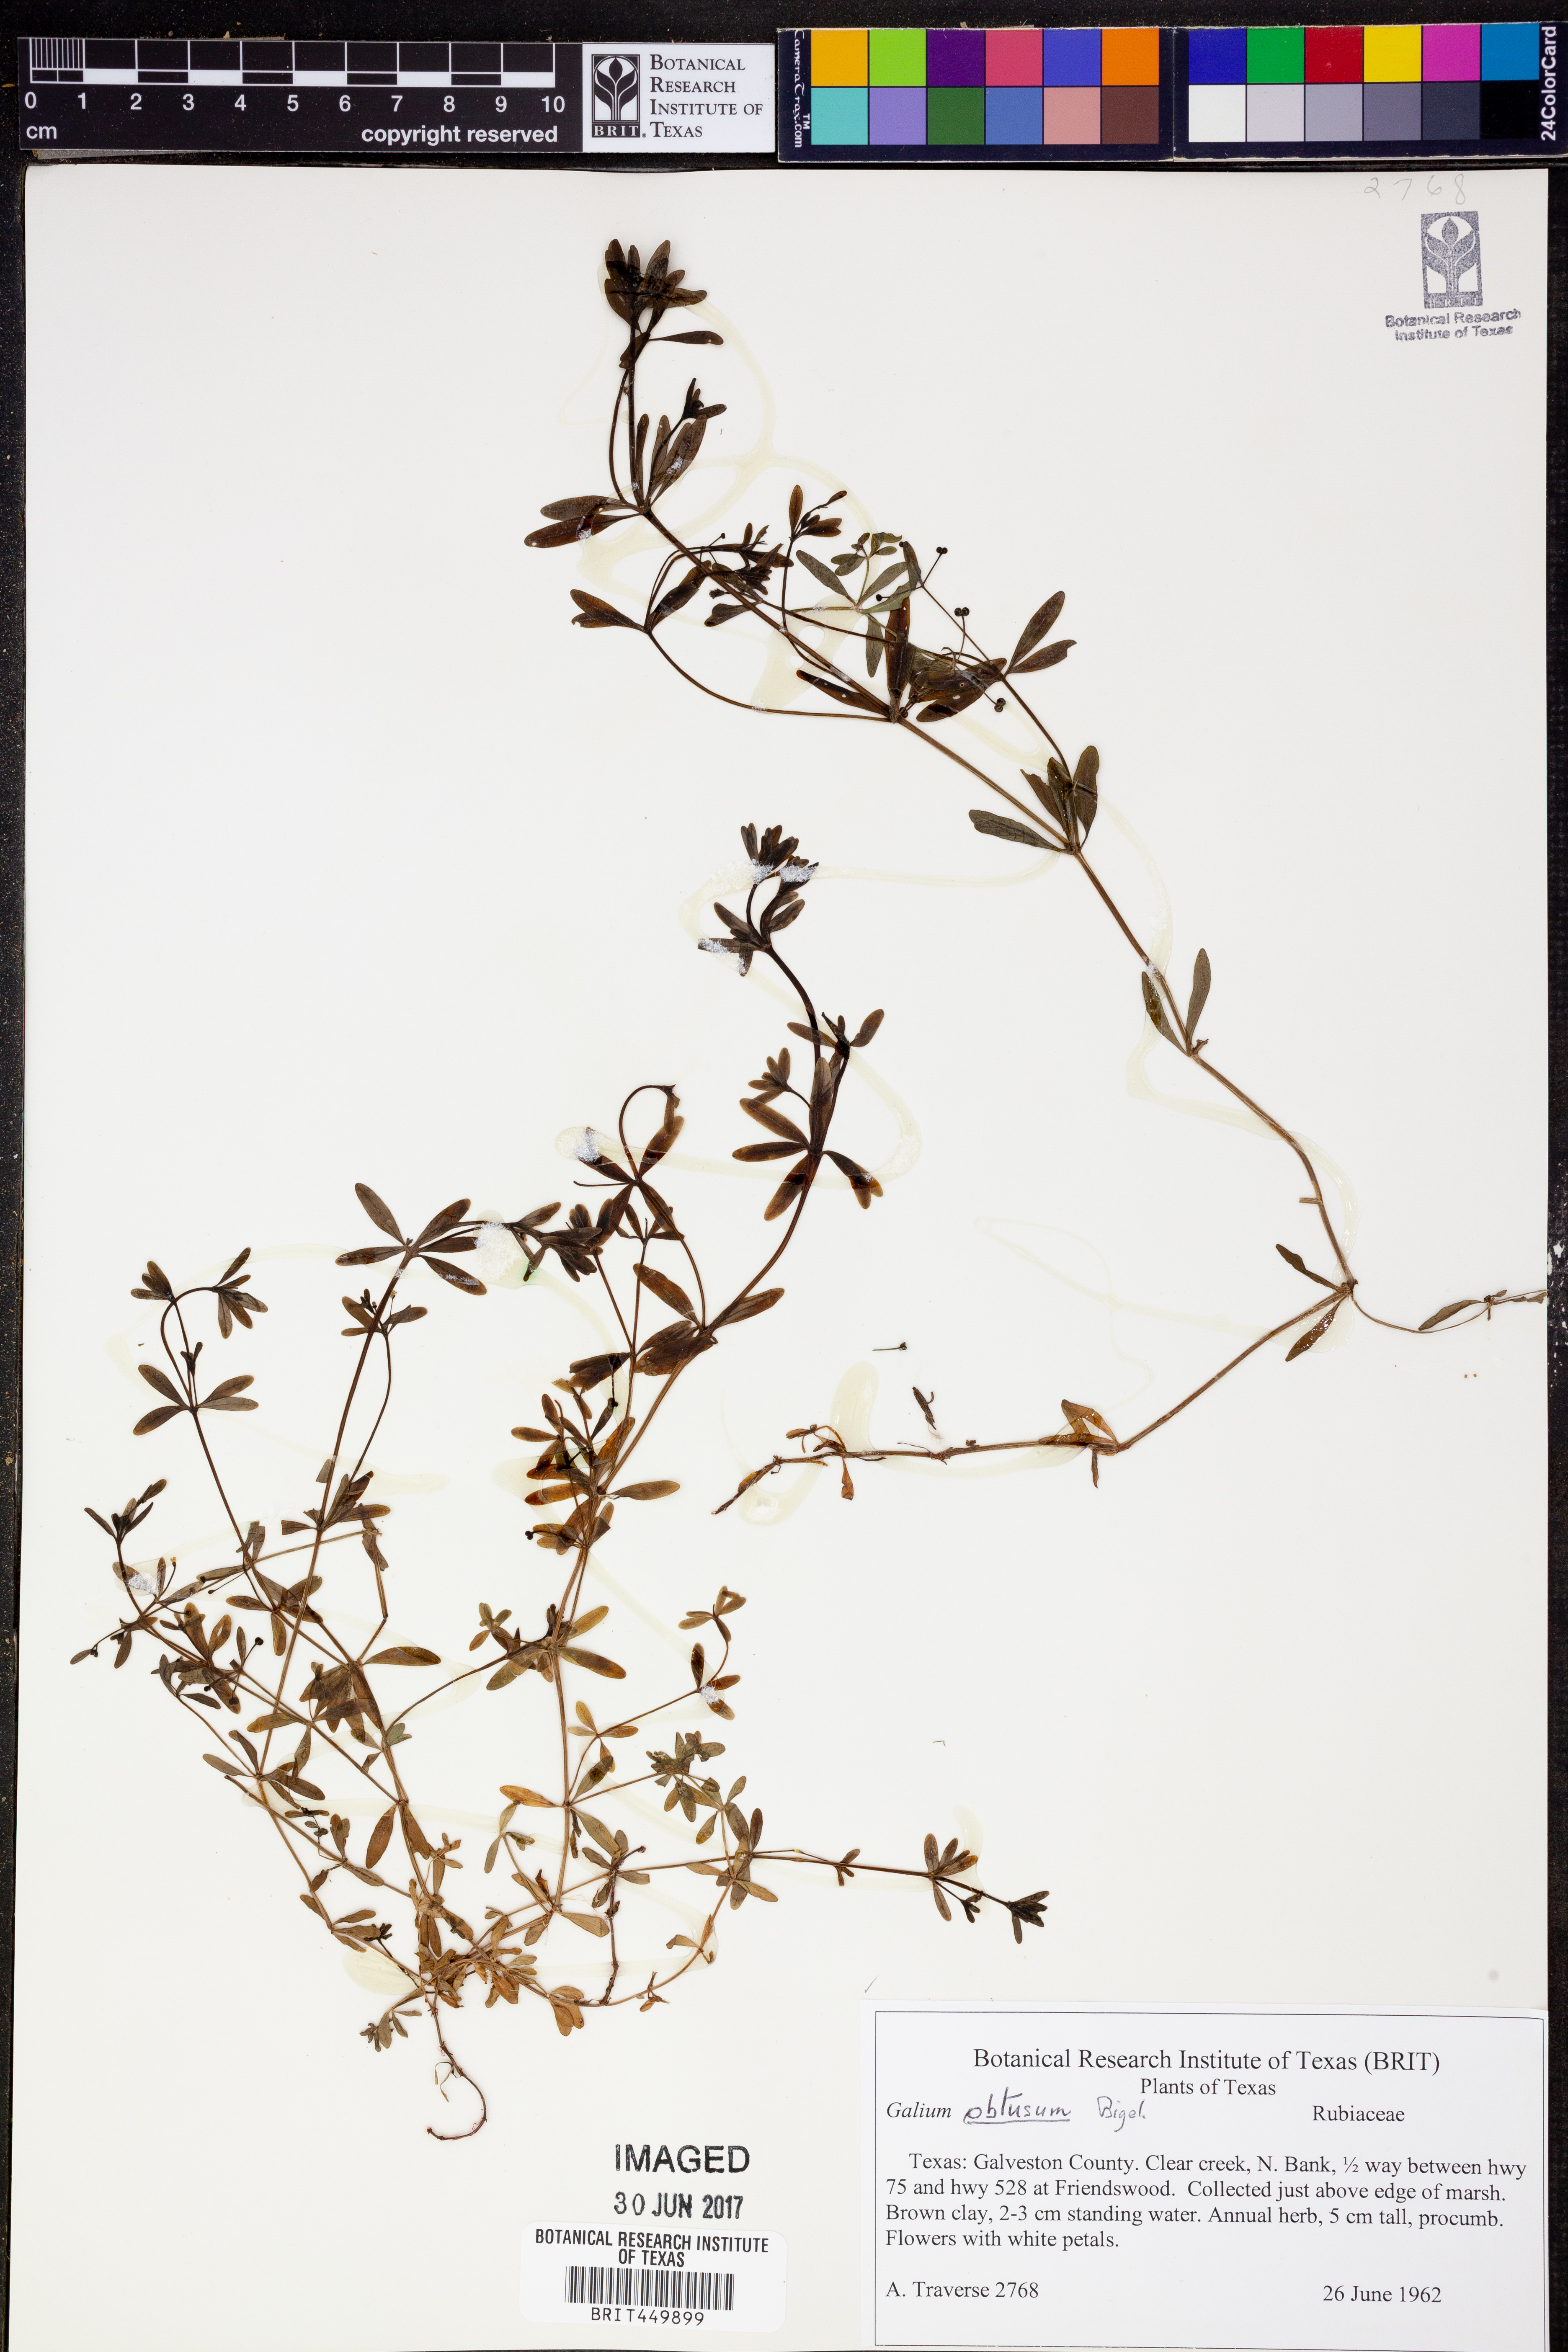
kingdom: Plantae
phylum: Tracheophyta
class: Magnoliopsida
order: Gentianales
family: Rubiaceae
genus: Galium
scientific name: Galium obtusum
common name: Blunt-leaved bedstraw
